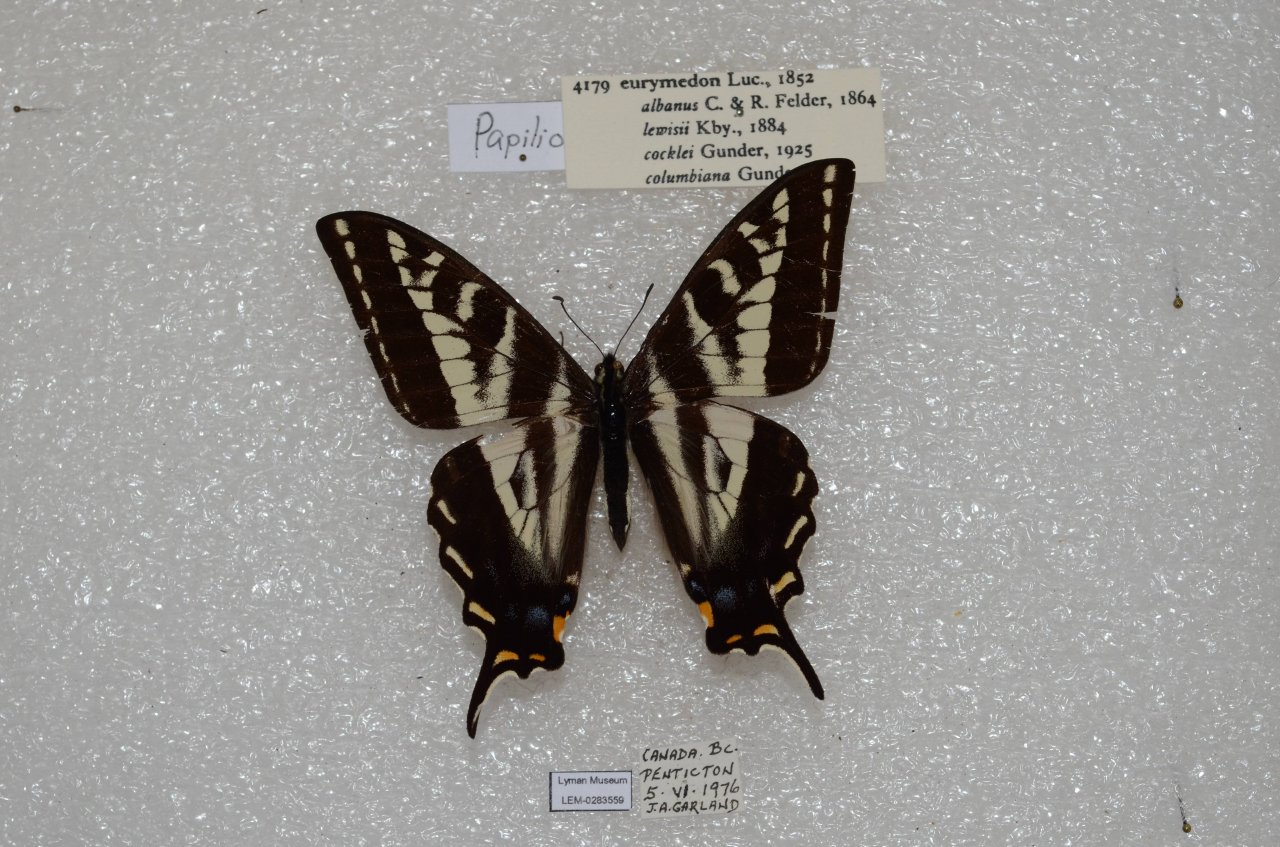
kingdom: Animalia
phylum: Arthropoda
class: Insecta
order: Lepidoptera
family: Papilionidae
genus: Pterourus
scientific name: Pterourus eurymedon
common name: Pale Swallowtail
